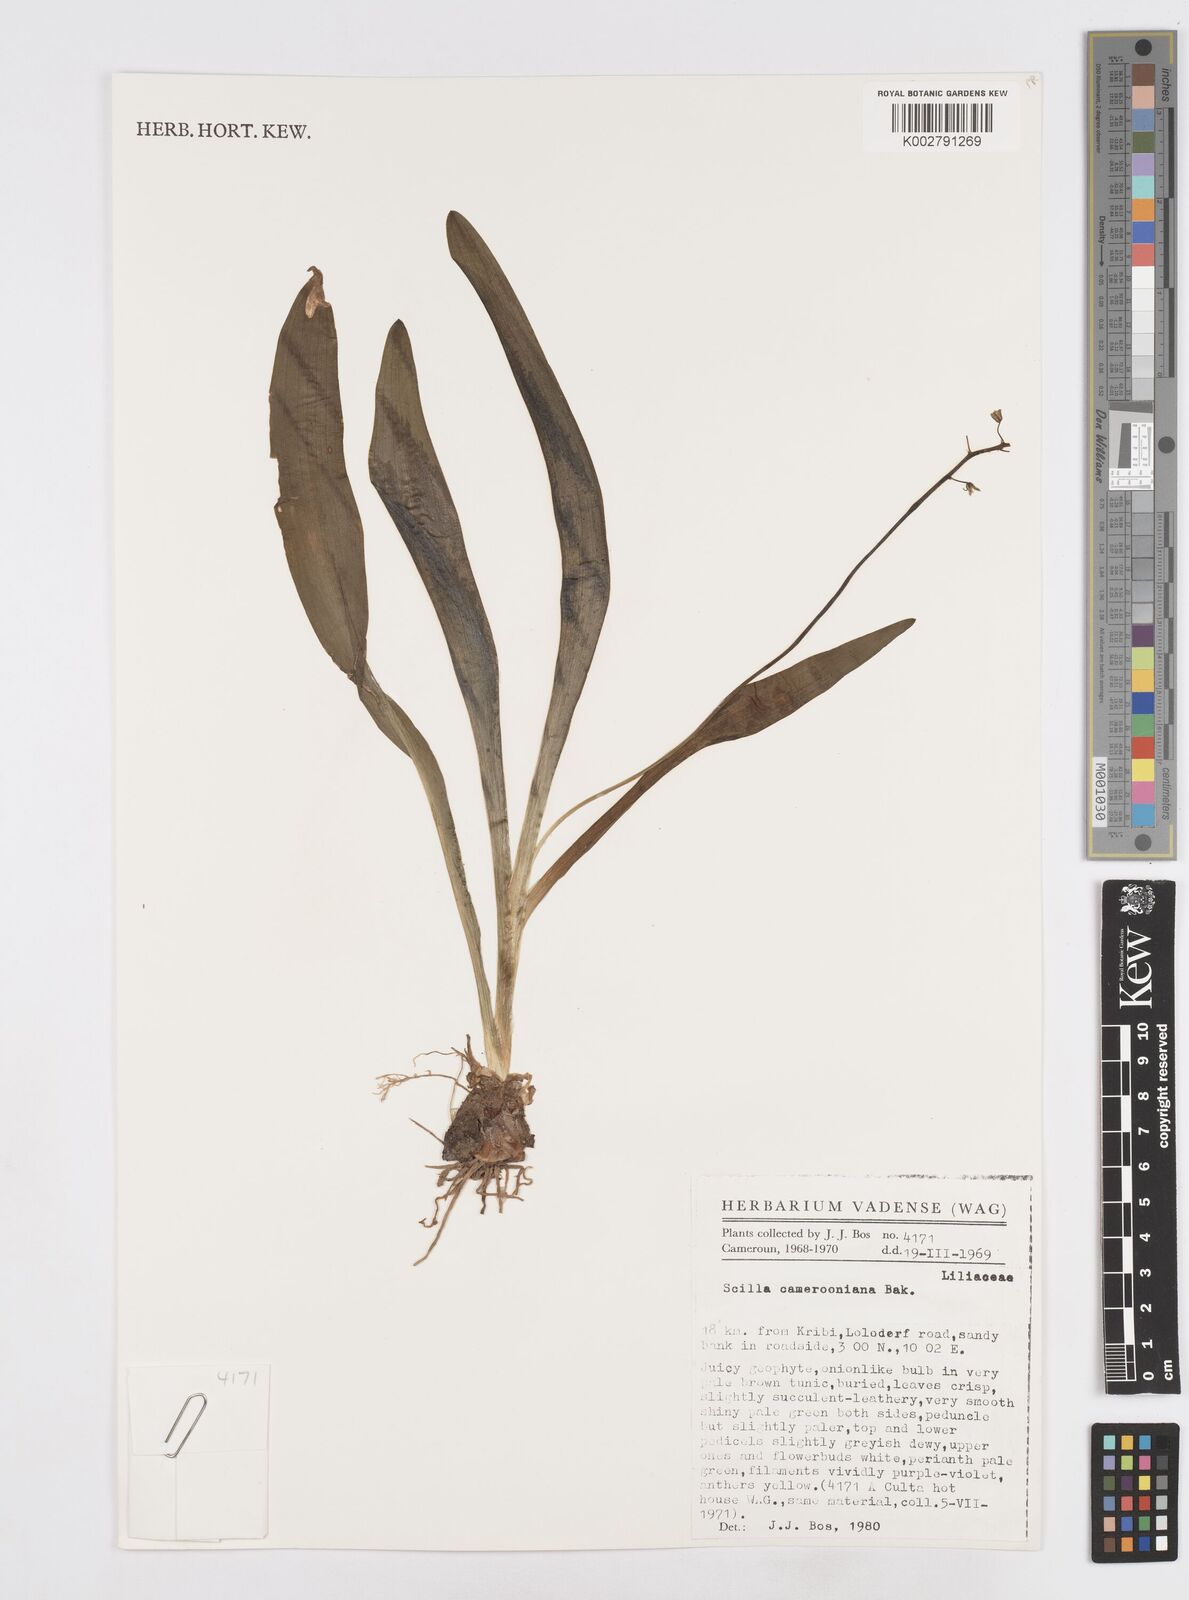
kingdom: Plantae
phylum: Tracheophyta
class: Liliopsida
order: Asparagales
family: Asparagaceae
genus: Ledebouria
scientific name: Ledebouria camerooniana
